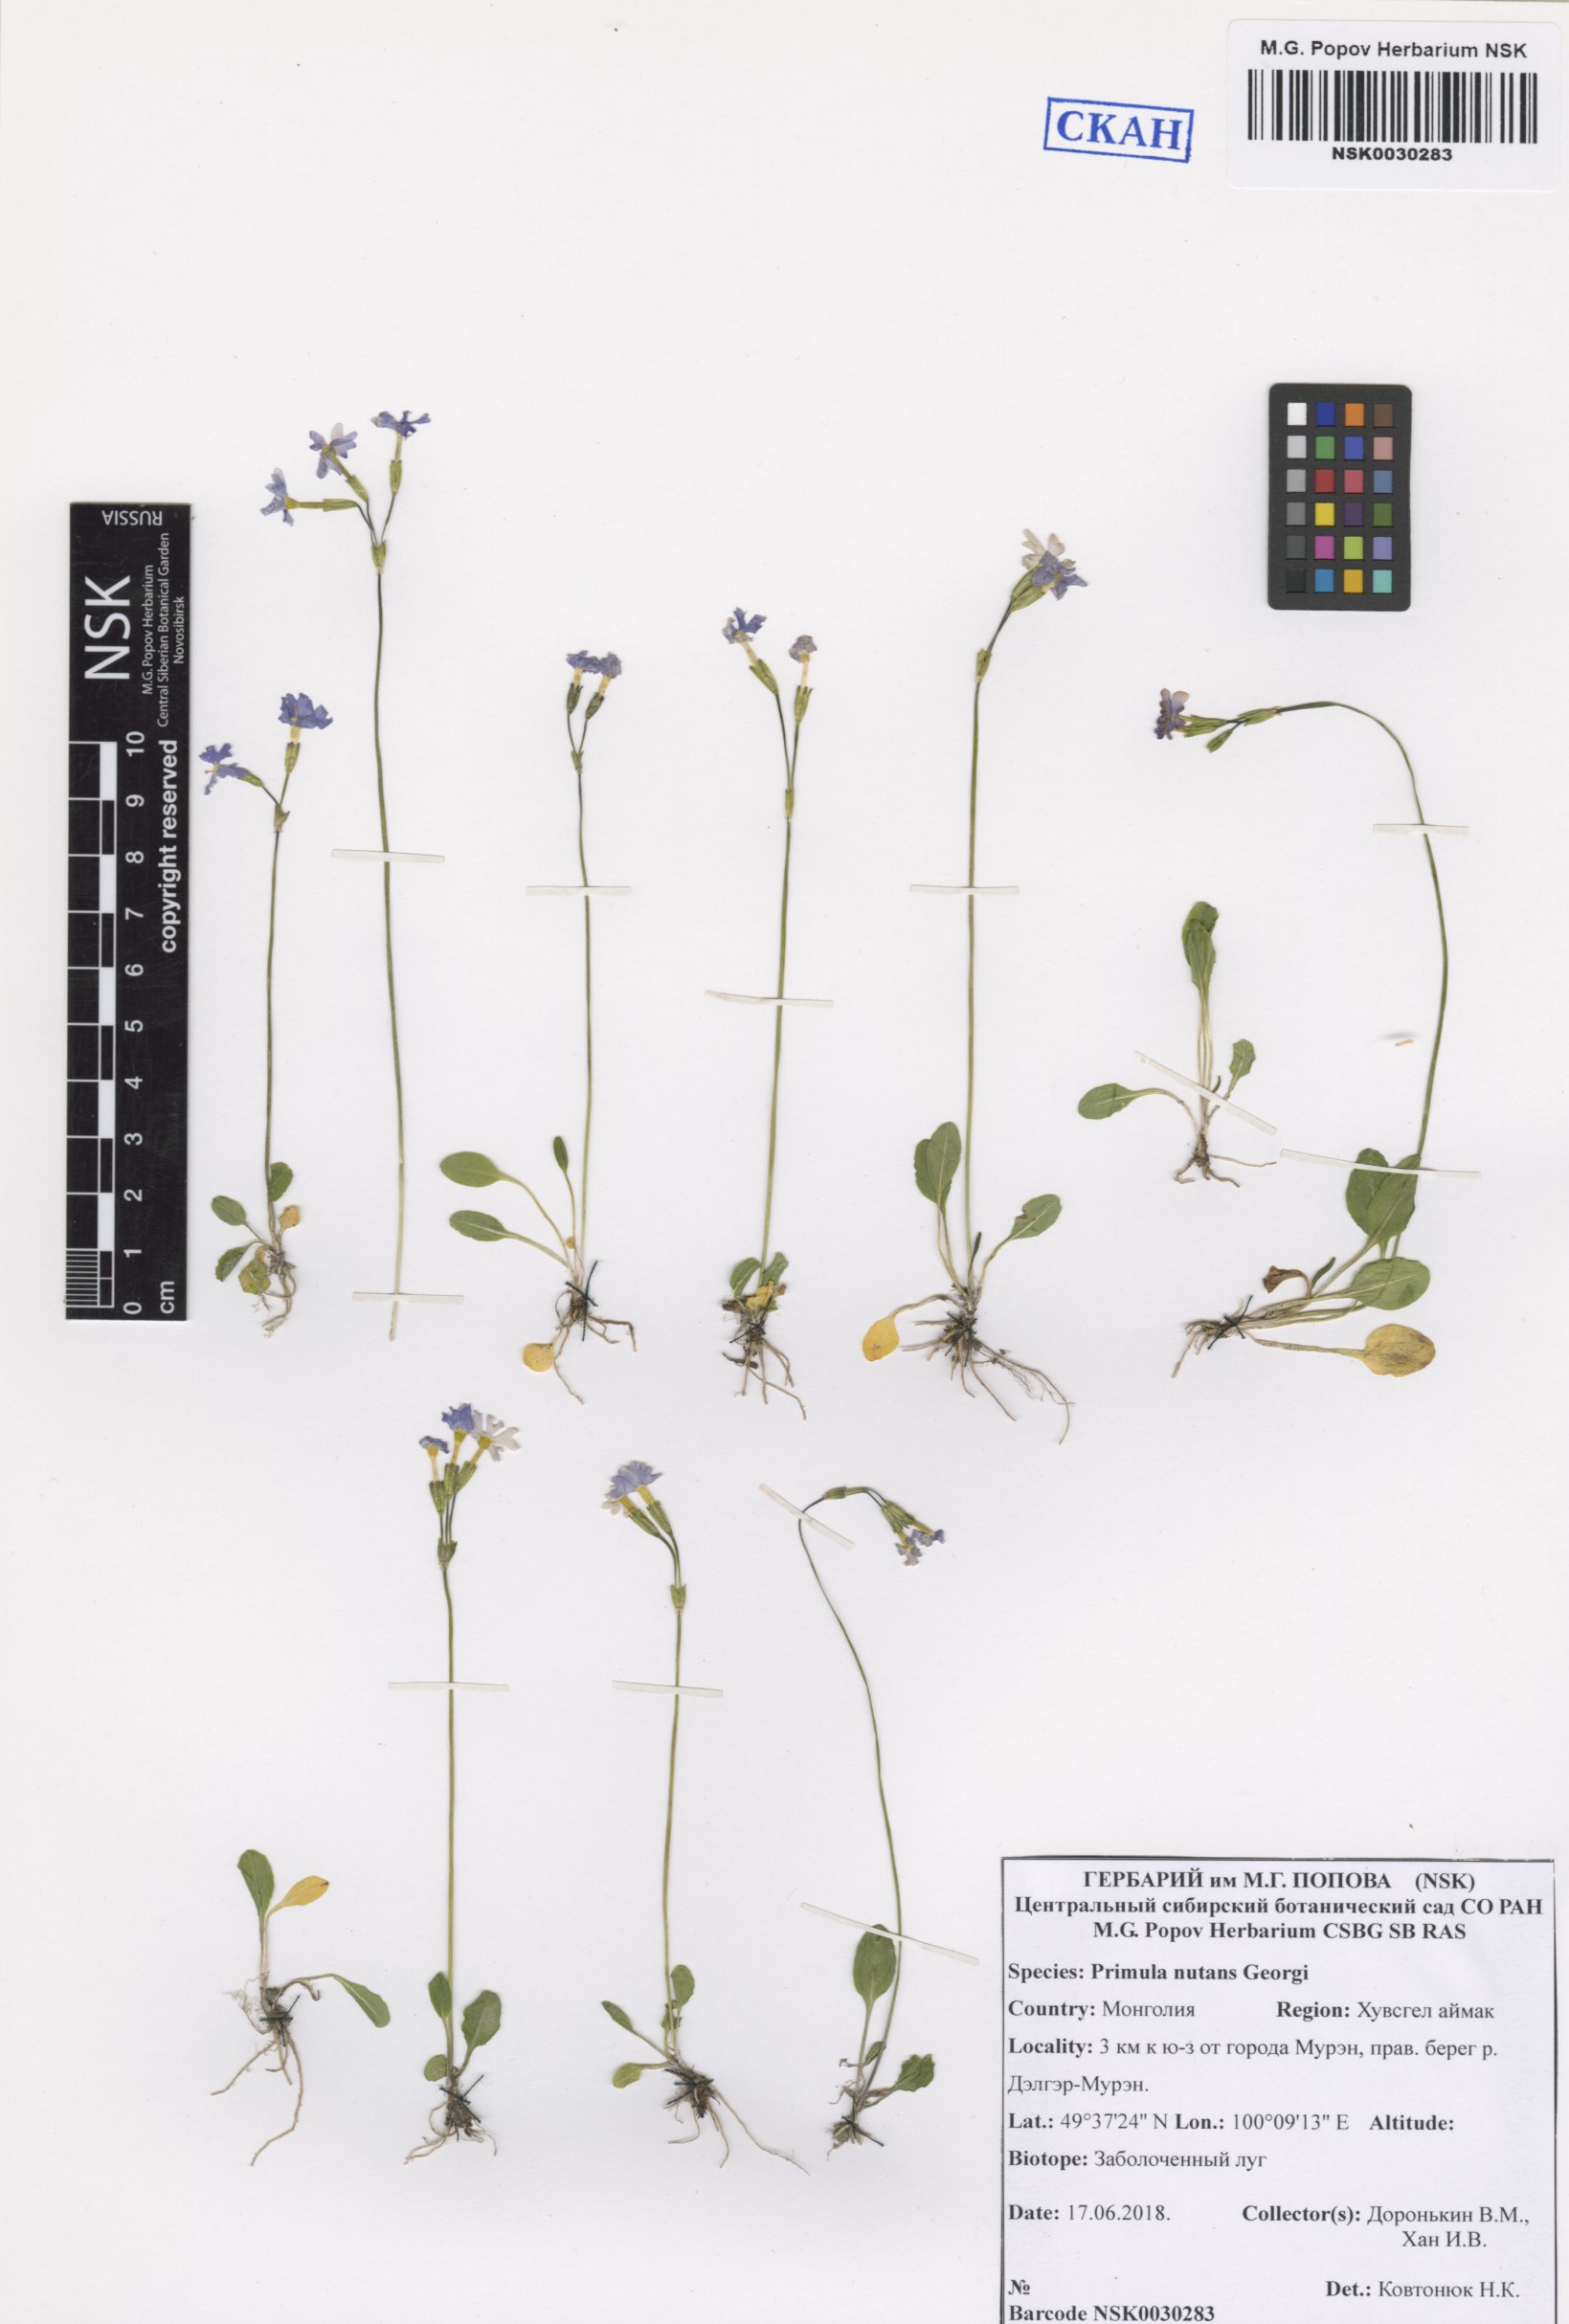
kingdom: Plantae
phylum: Tracheophyta
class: Magnoliopsida
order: Ericales
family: Primulaceae
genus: Primula
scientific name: Primula nutans
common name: Siberian primrose
